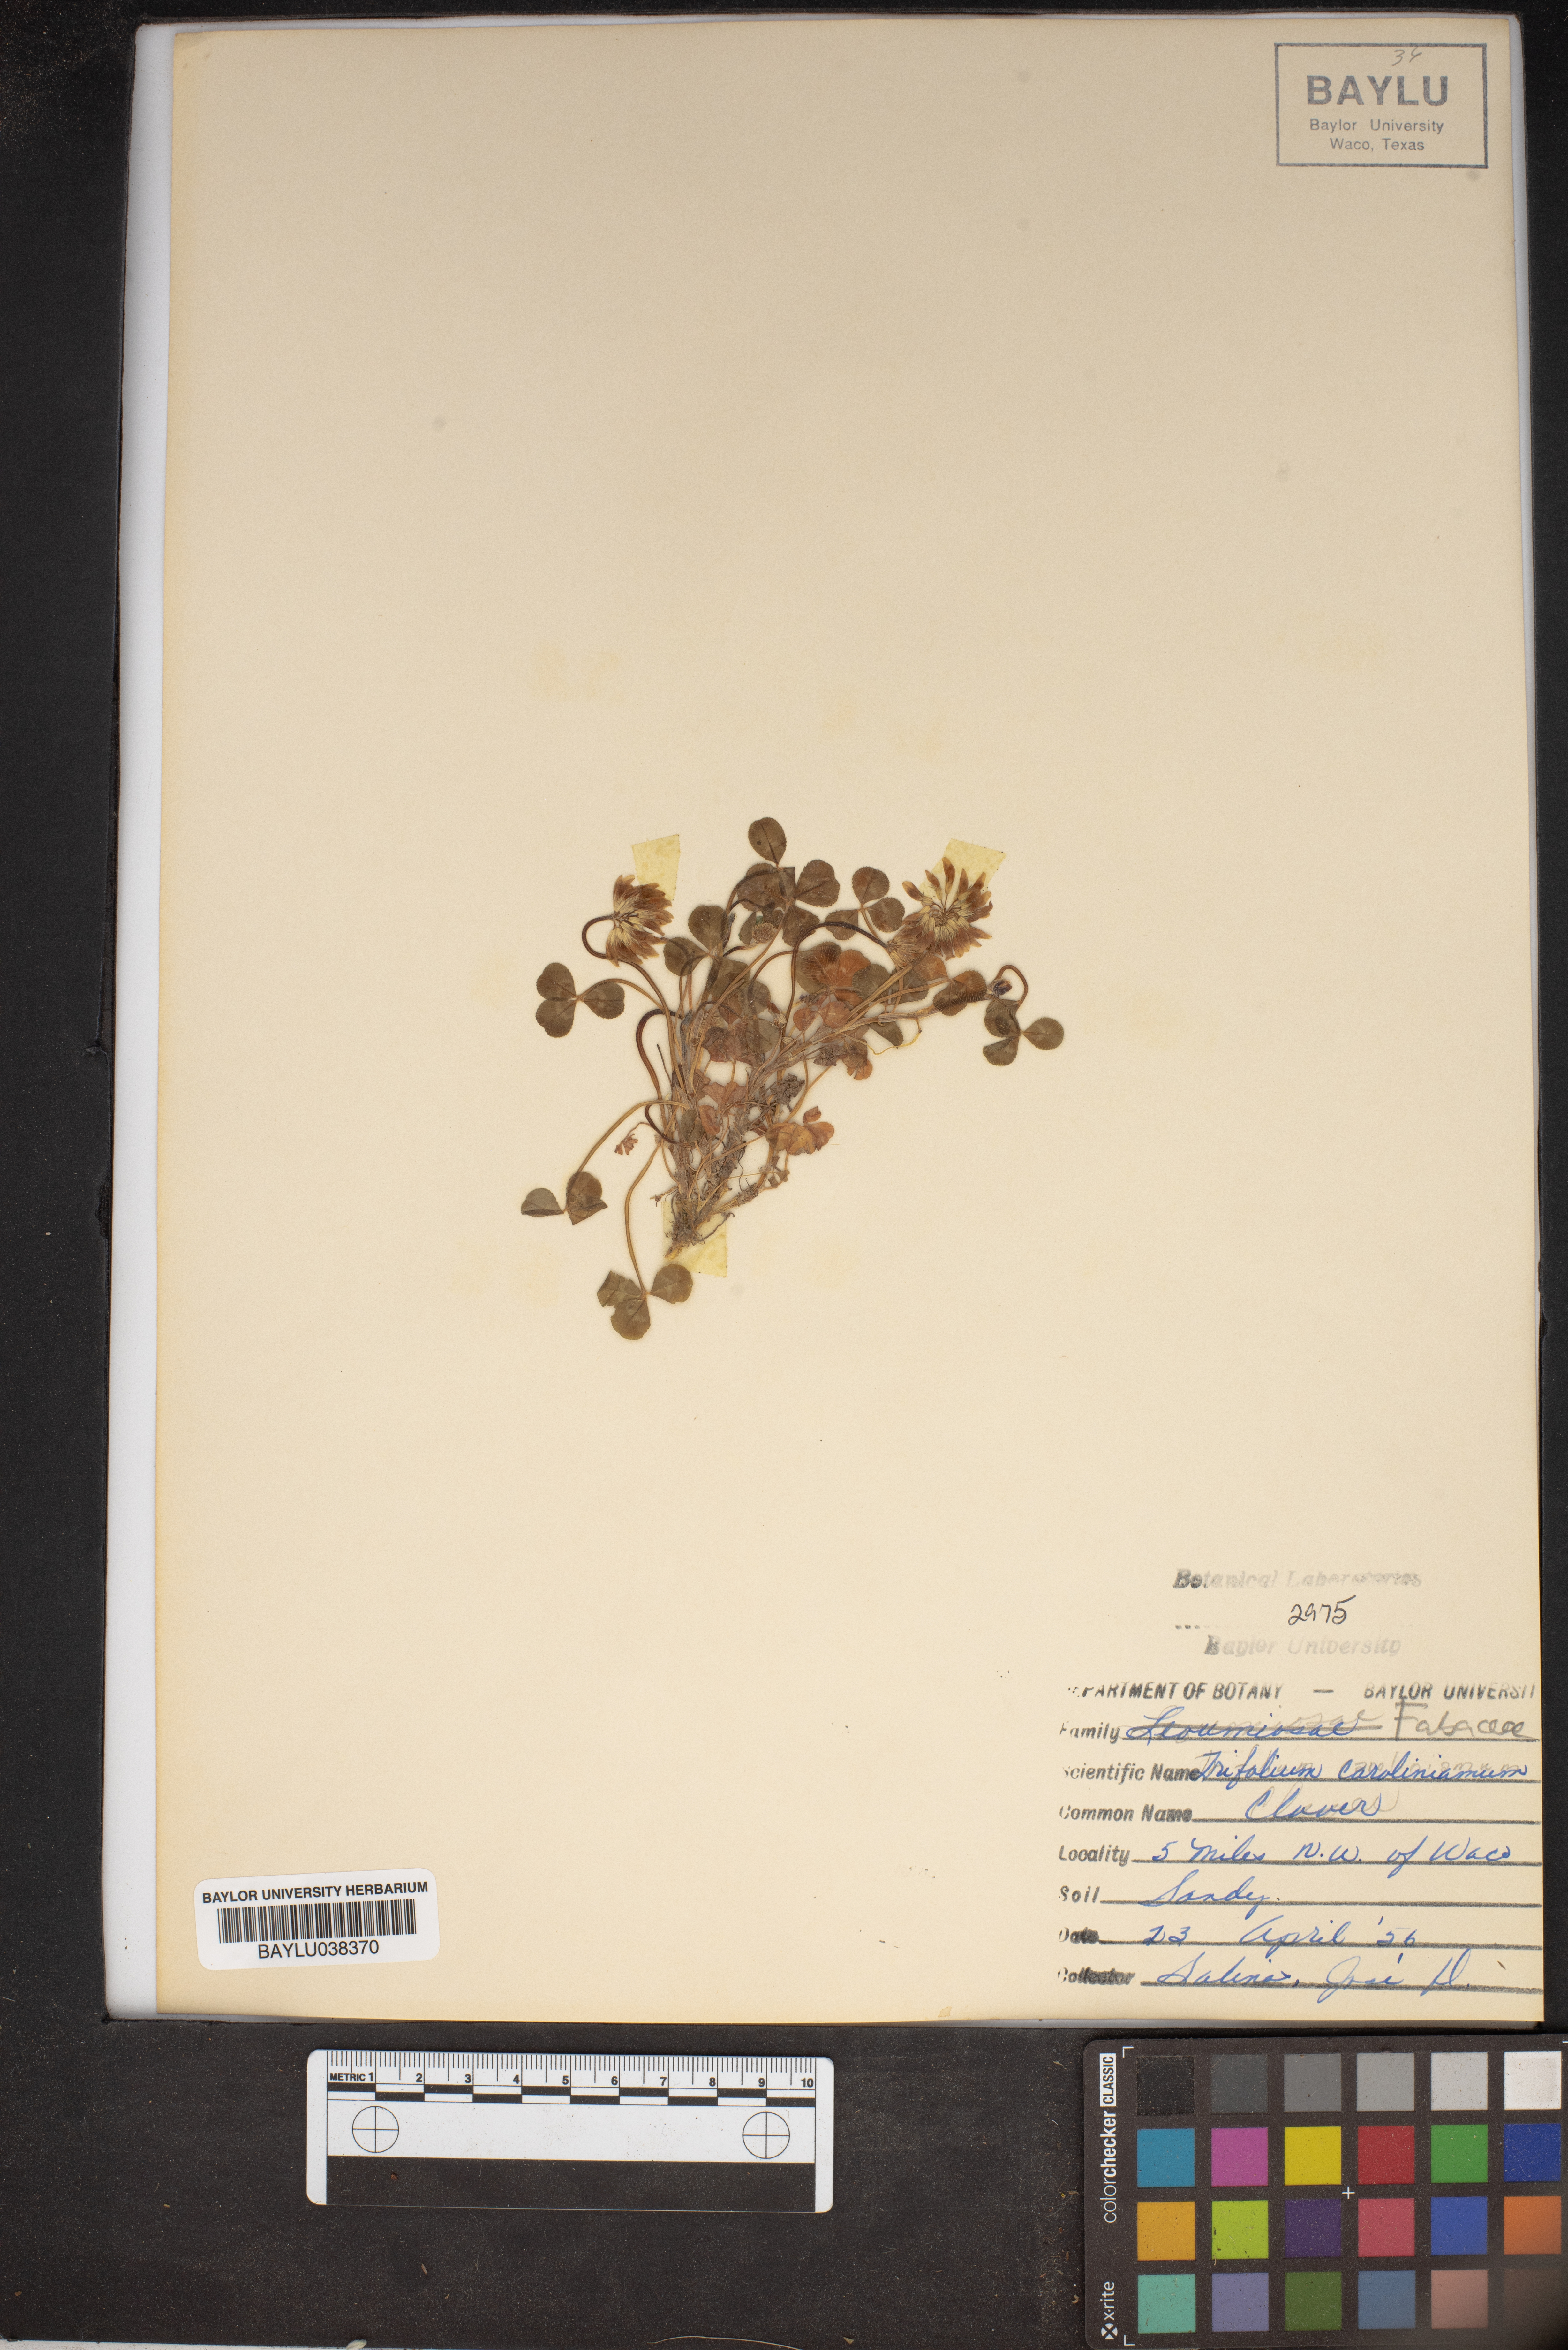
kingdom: Plantae
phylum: Tracheophyta
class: Magnoliopsida
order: Fabales
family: Fabaceae
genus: Trifolium
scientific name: Trifolium carolinianum
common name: Wild white clover
